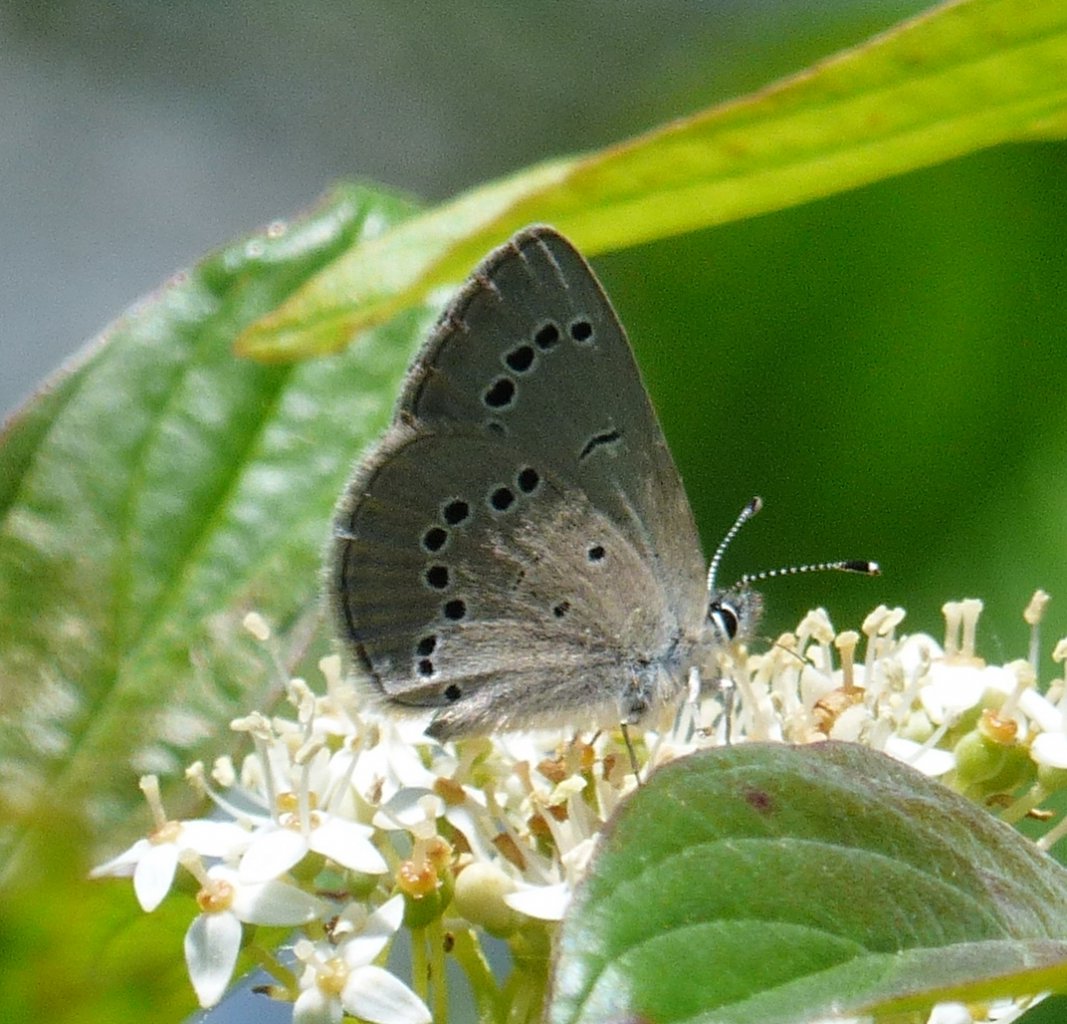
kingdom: Animalia
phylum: Arthropoda
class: Insecta
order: Lepidoptera
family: Lycaenidae
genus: Glaucopsyche
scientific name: Glaucopsyche lygdamus
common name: Silvery Blue
